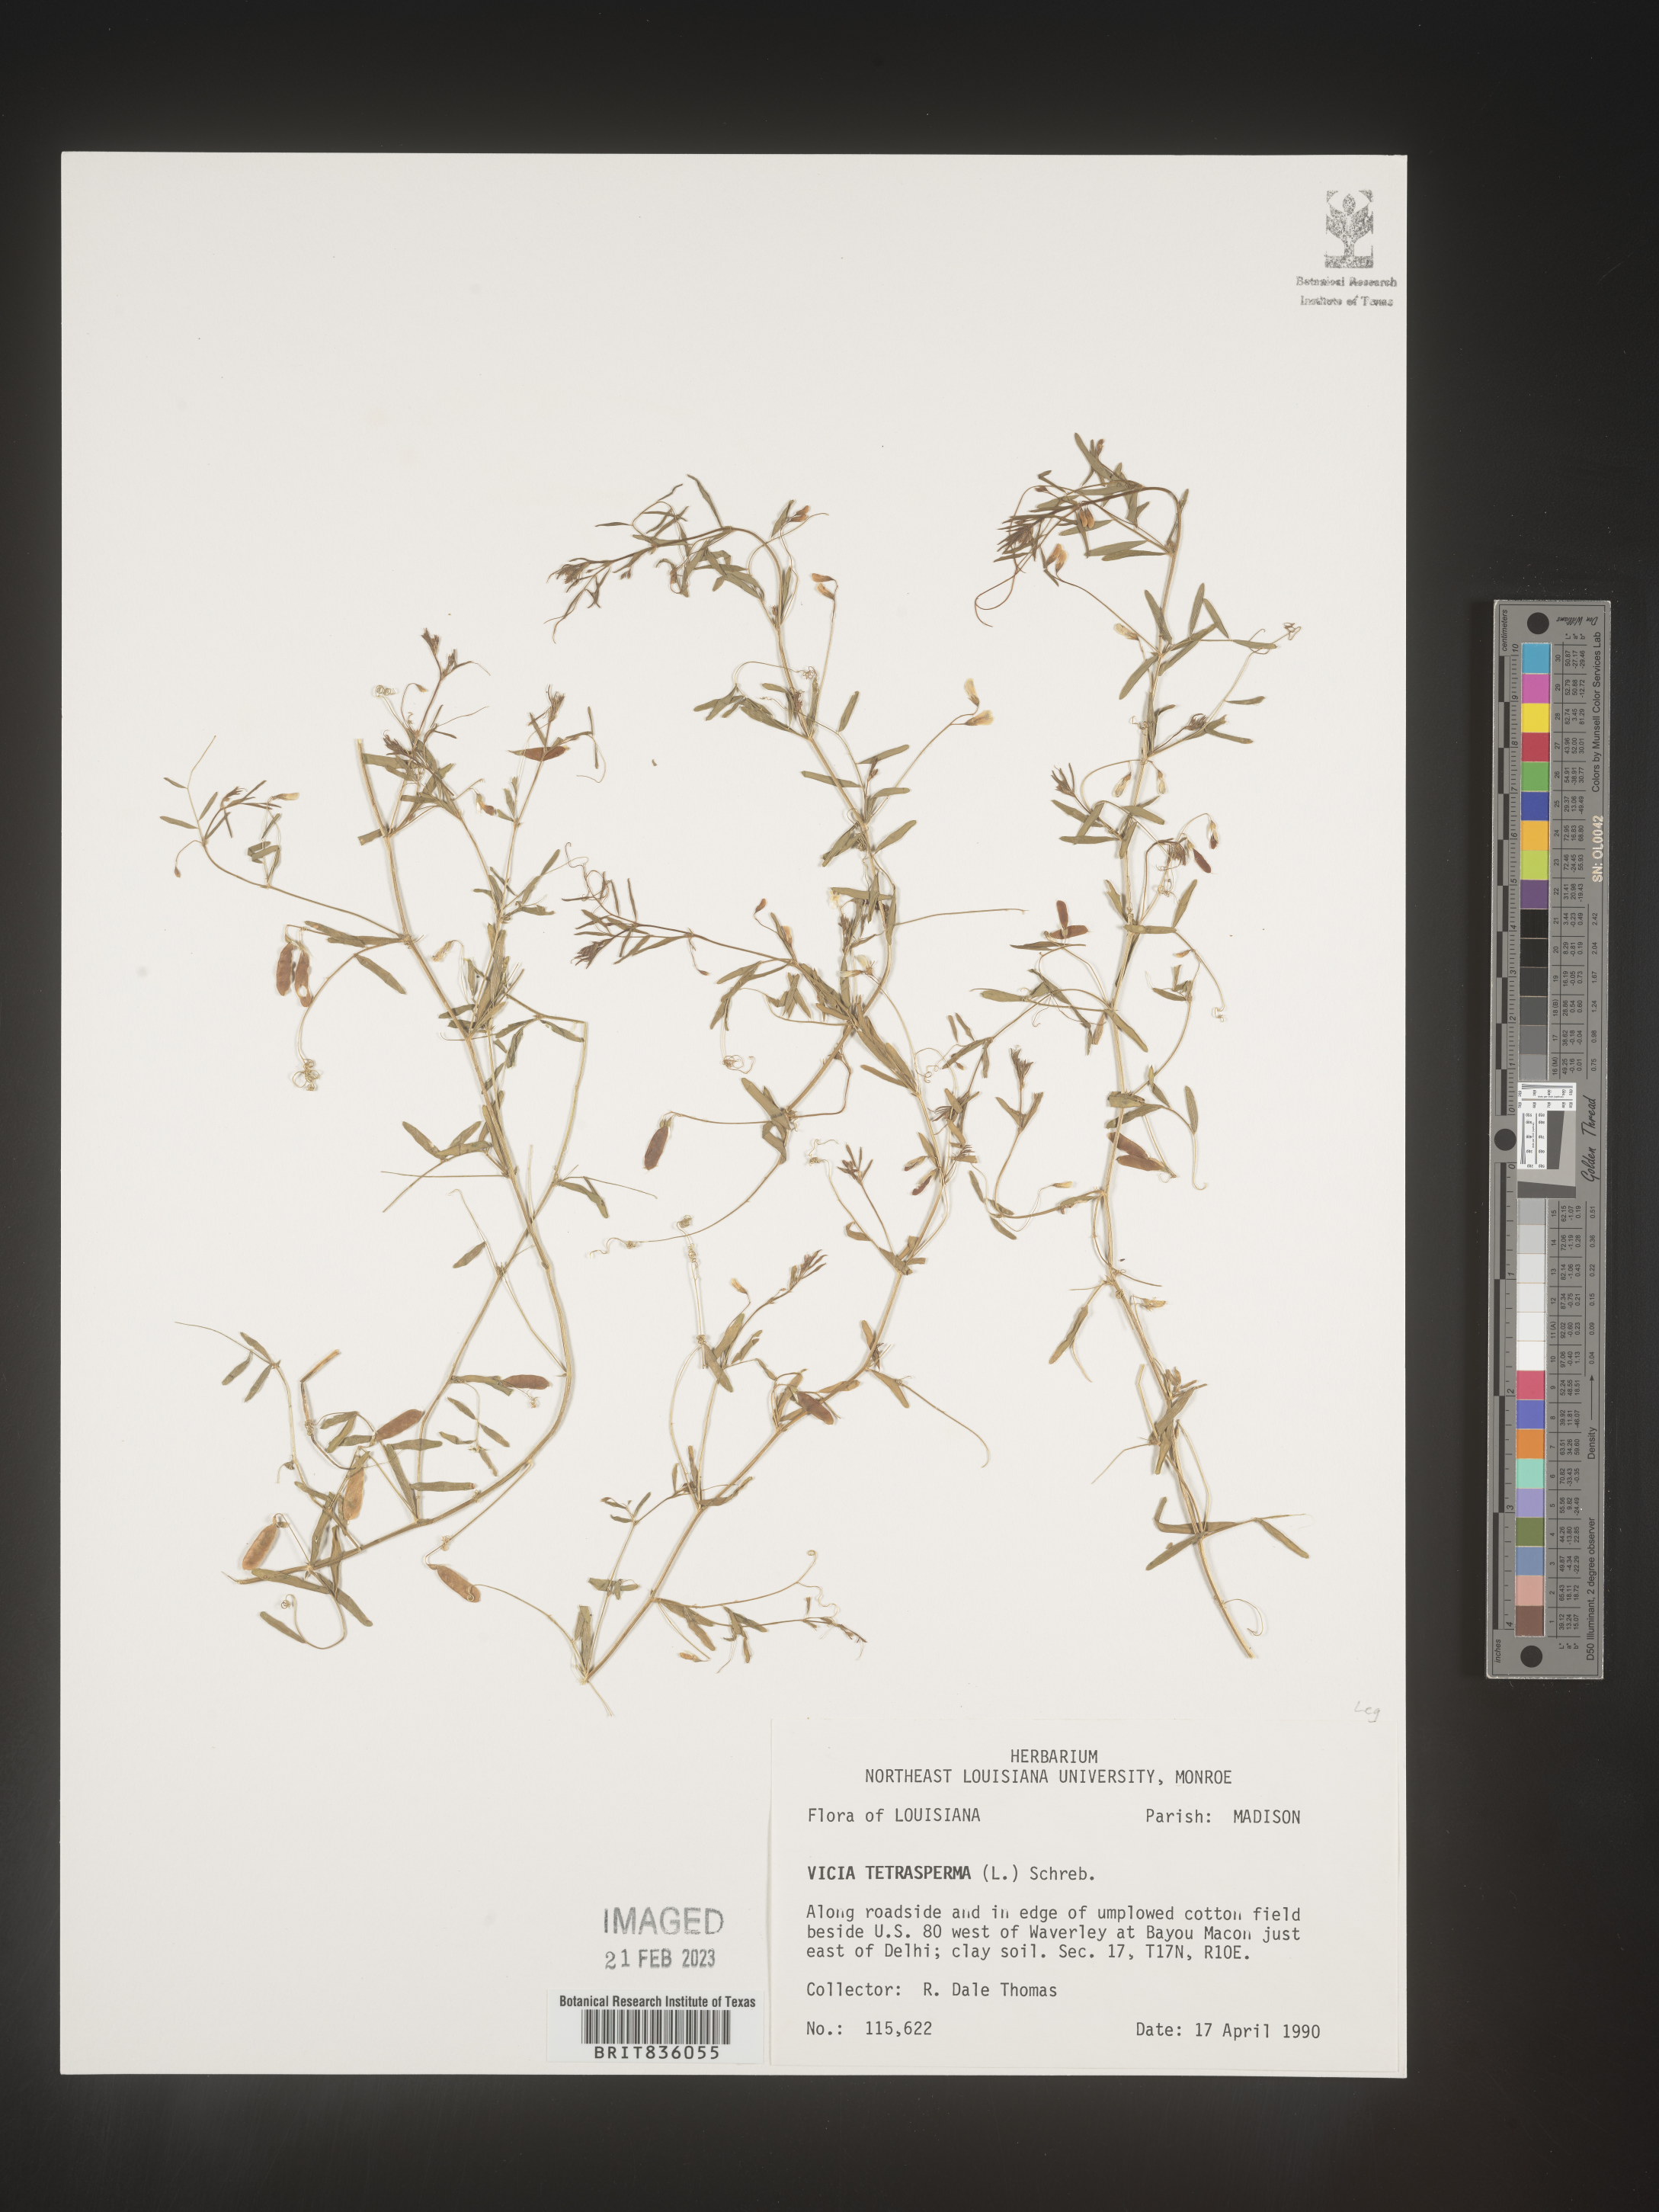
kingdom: Plantae
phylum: Tracheophyta
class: Magnoliopsida
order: Fabales
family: Fabaceae
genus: Vicia
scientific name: Vicia tetrasperma
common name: Smooth tare
